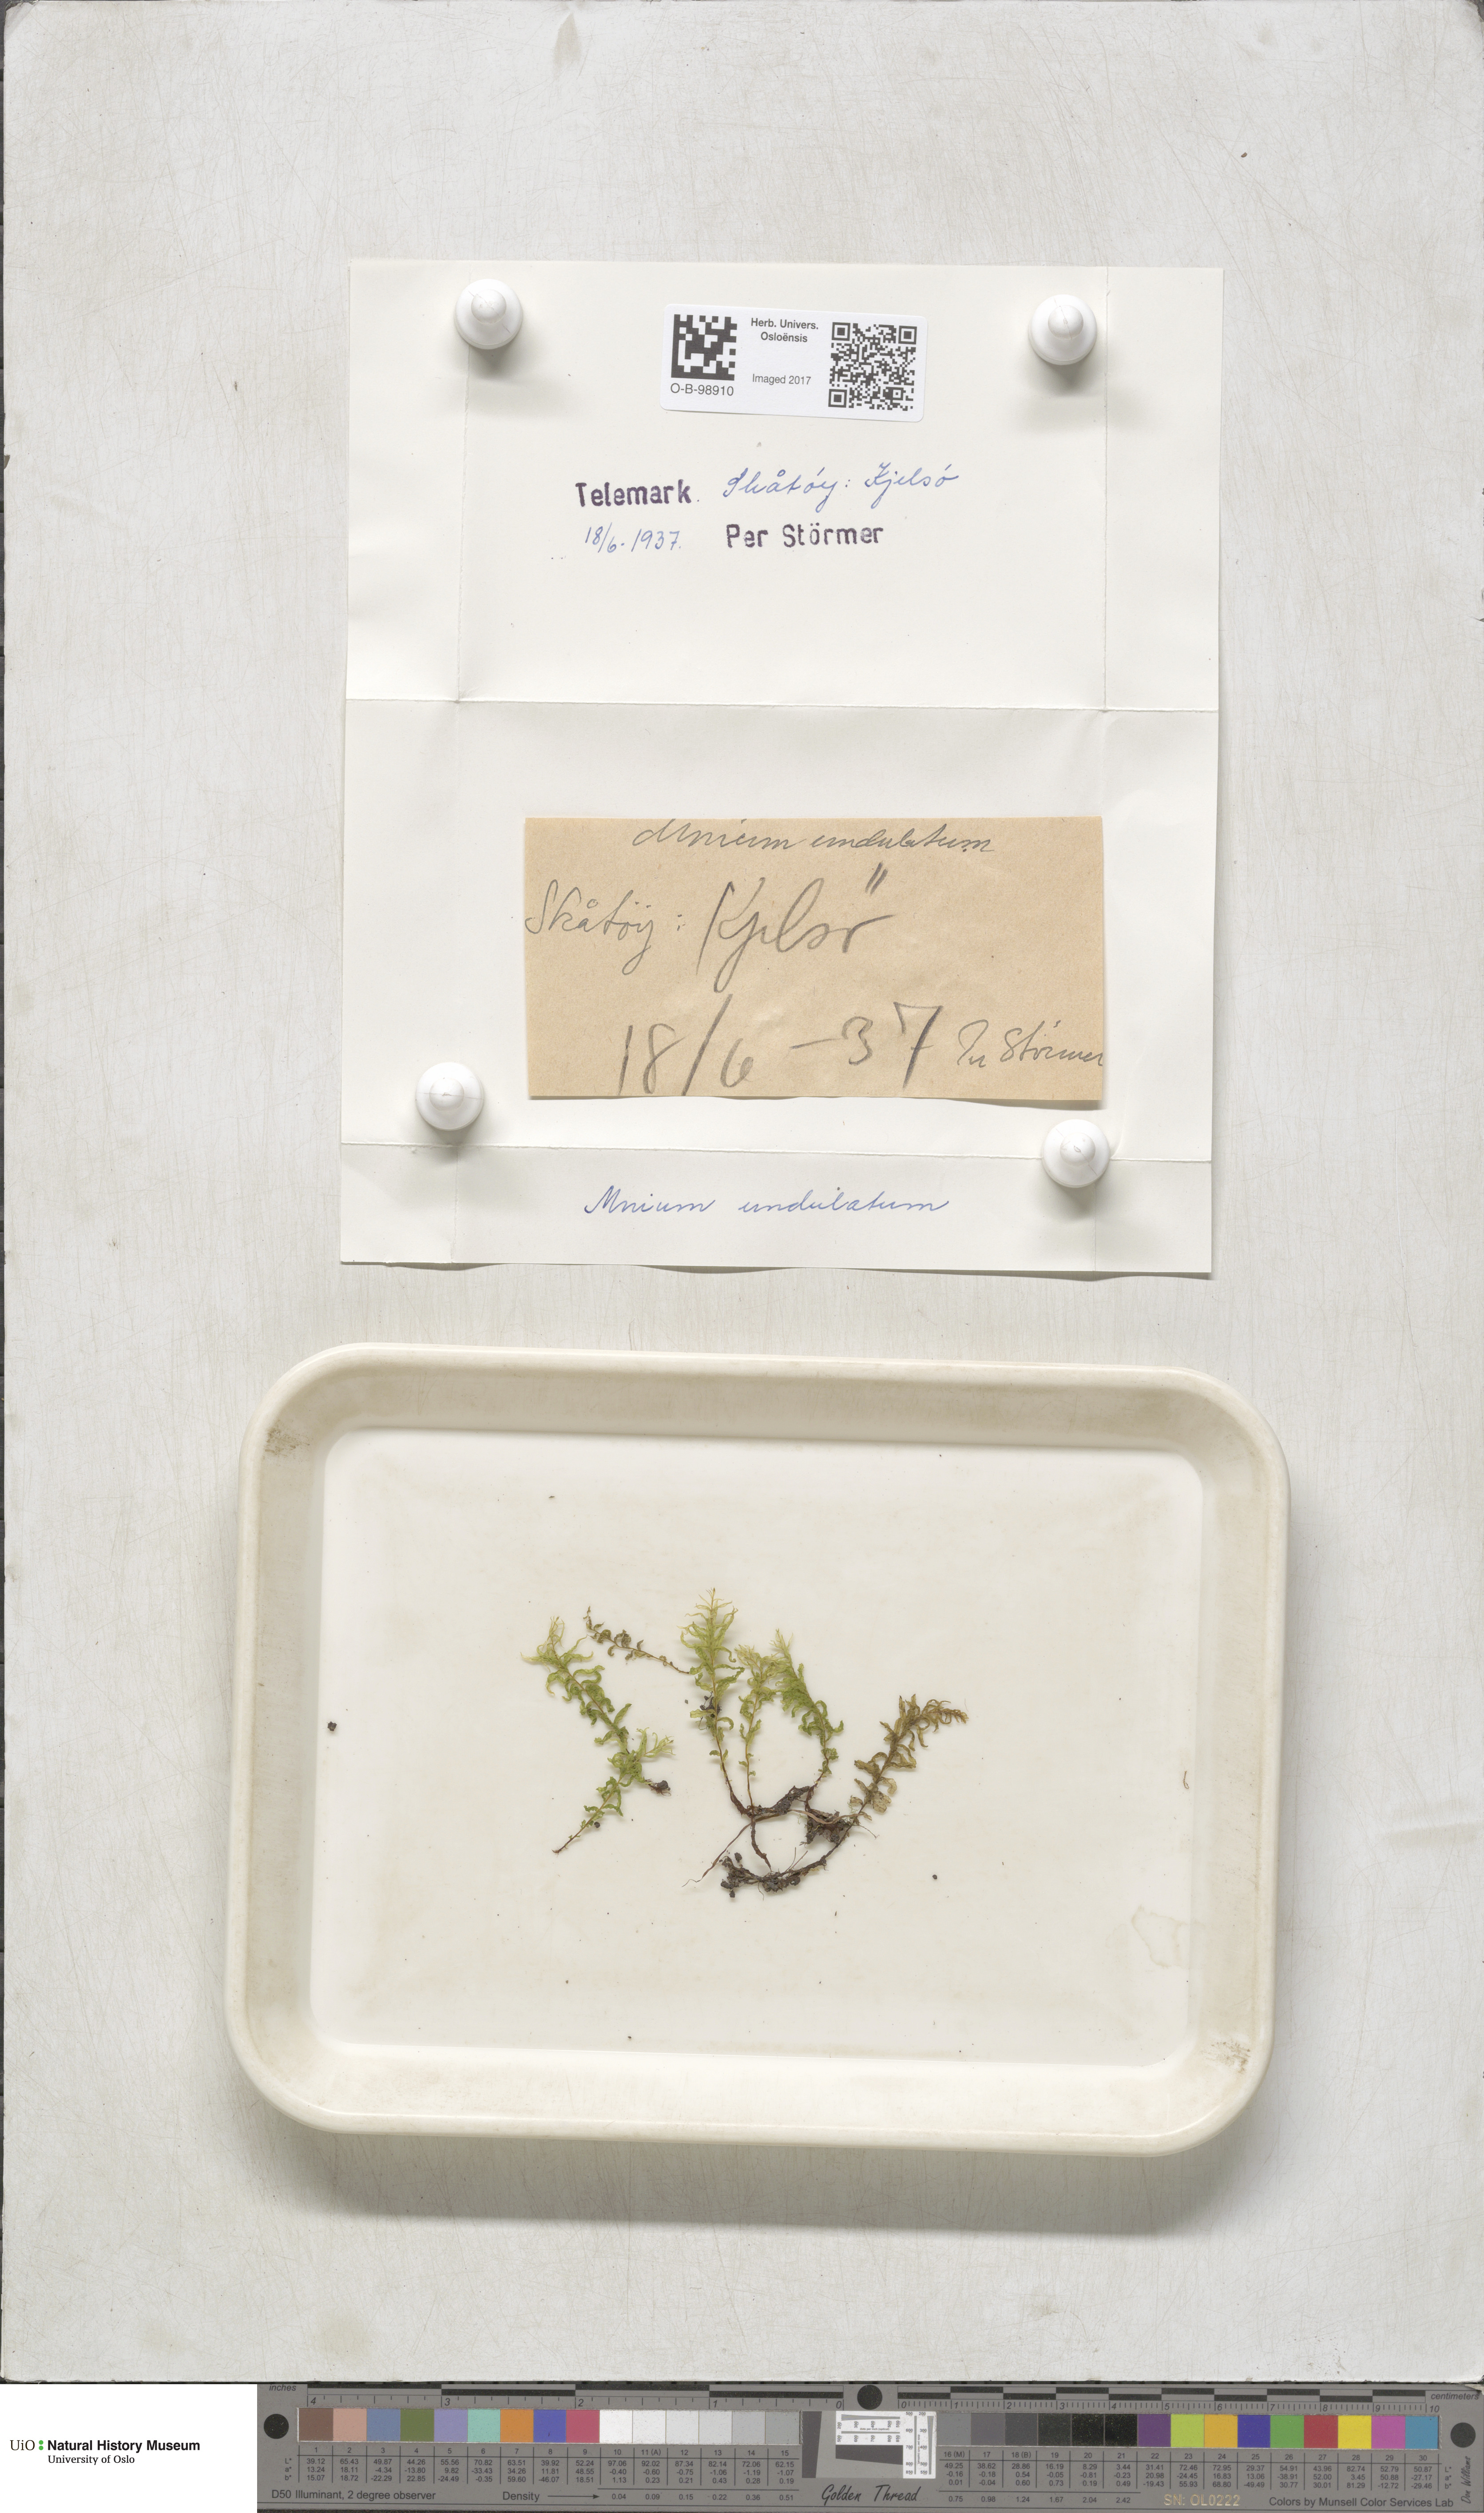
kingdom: Plantae
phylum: Bryophyta
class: Bryopsida
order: Bryales
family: Mniaceae
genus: Plagiomnium
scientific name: Plagiomnium undulatum
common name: Hart's-tongue thyme-moss
